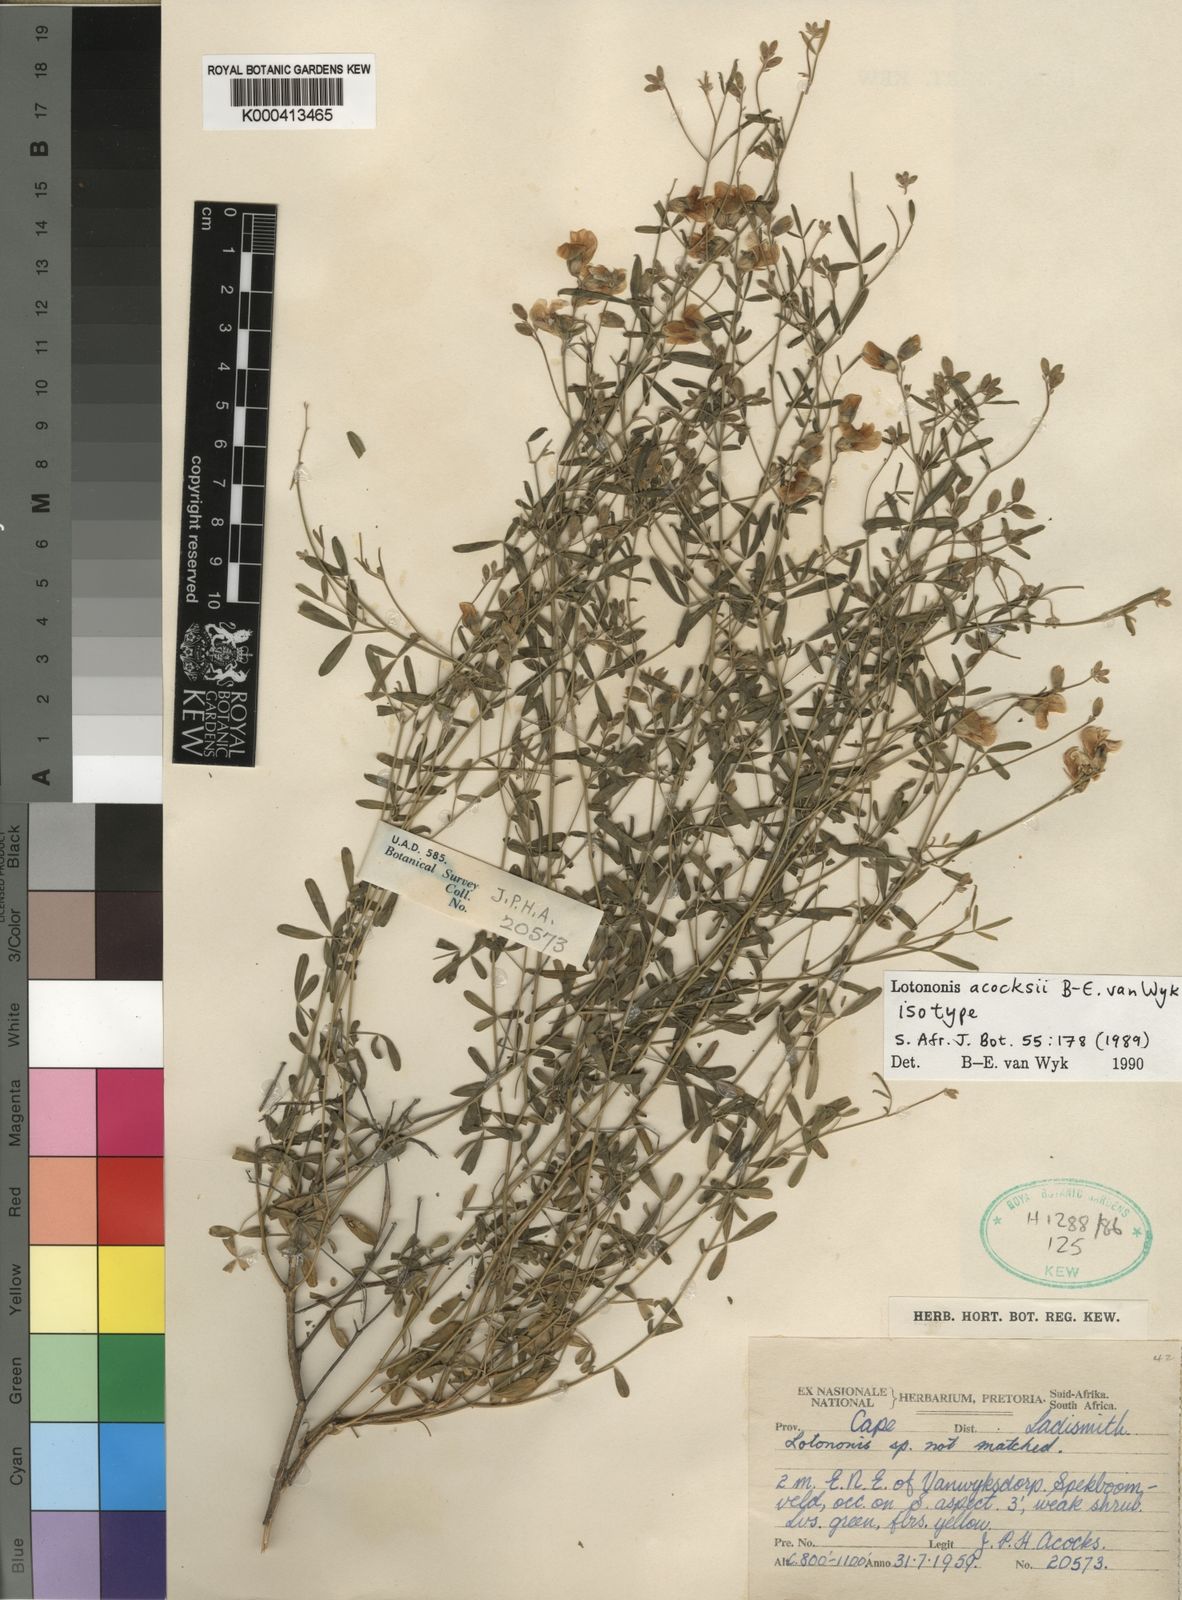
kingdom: Plantae
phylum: Tracheophyta
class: Magnoliopsida
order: Fabales
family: Fabaceae
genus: Lotononis
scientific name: Lotononis acocksii
